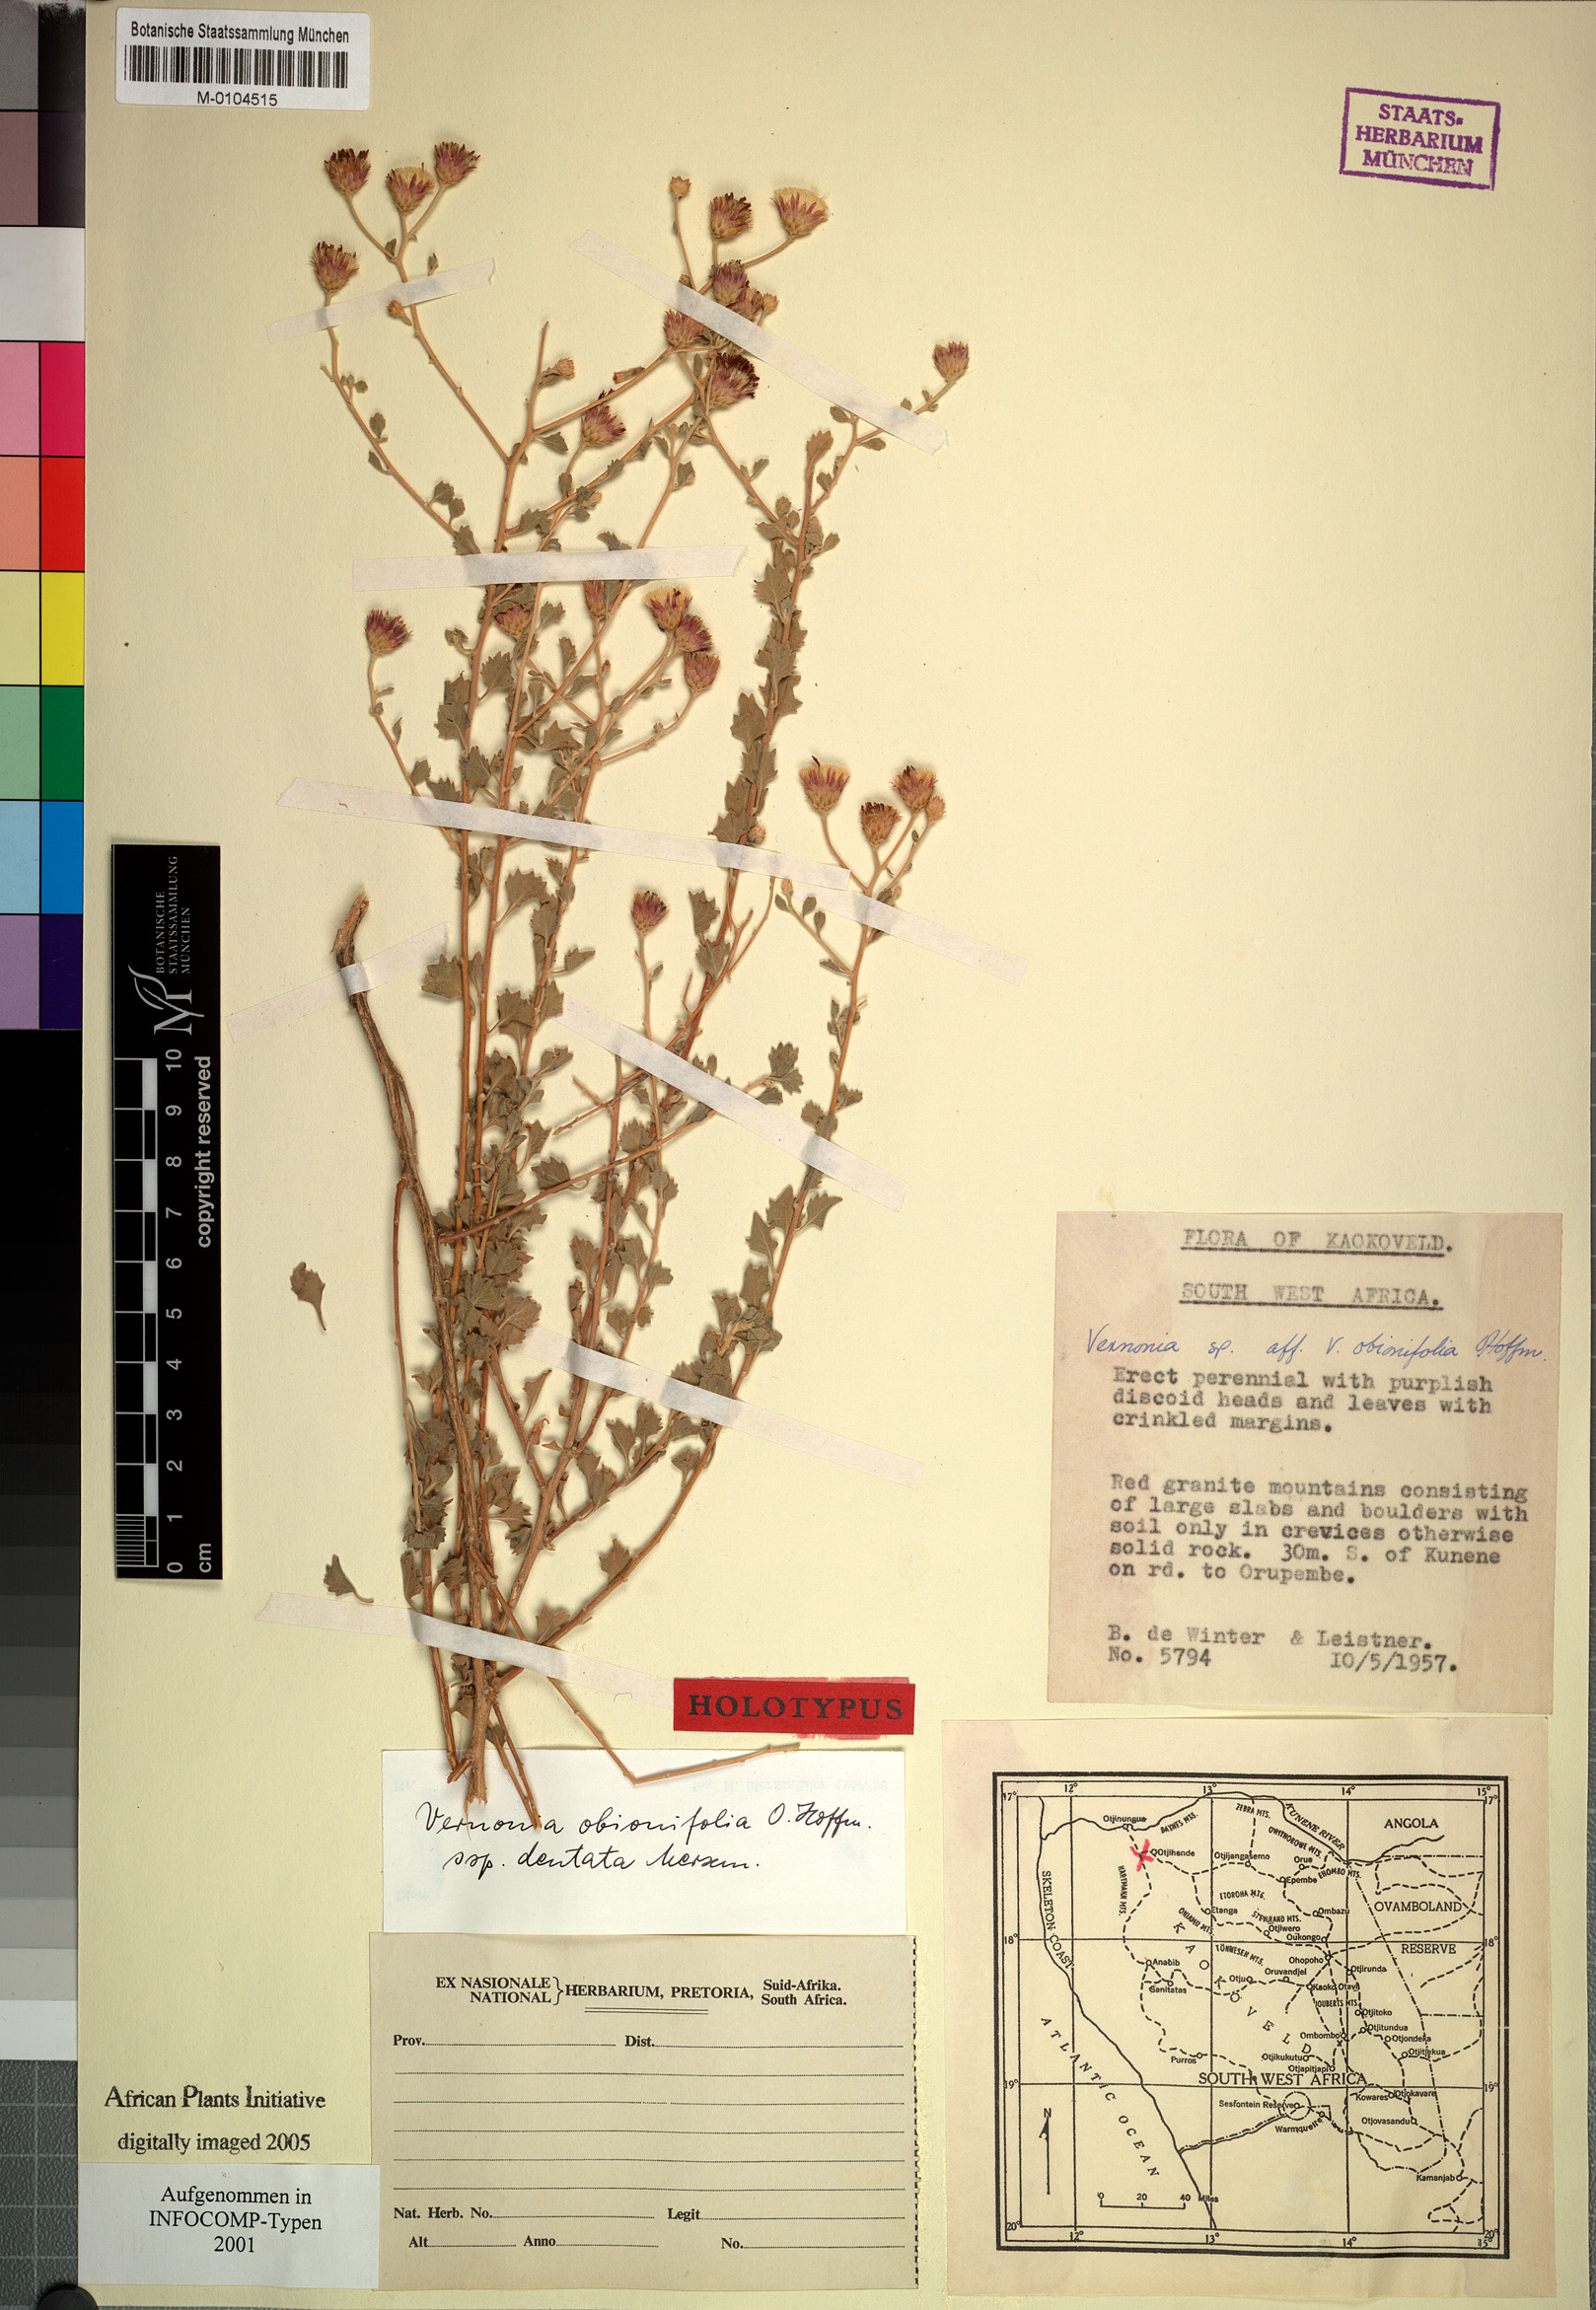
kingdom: Plantae
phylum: Tracheophyta
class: Magnoliopsida
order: Asterales
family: Asteraceae
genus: Namibithamnus
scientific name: Namibithamnus dentatus
